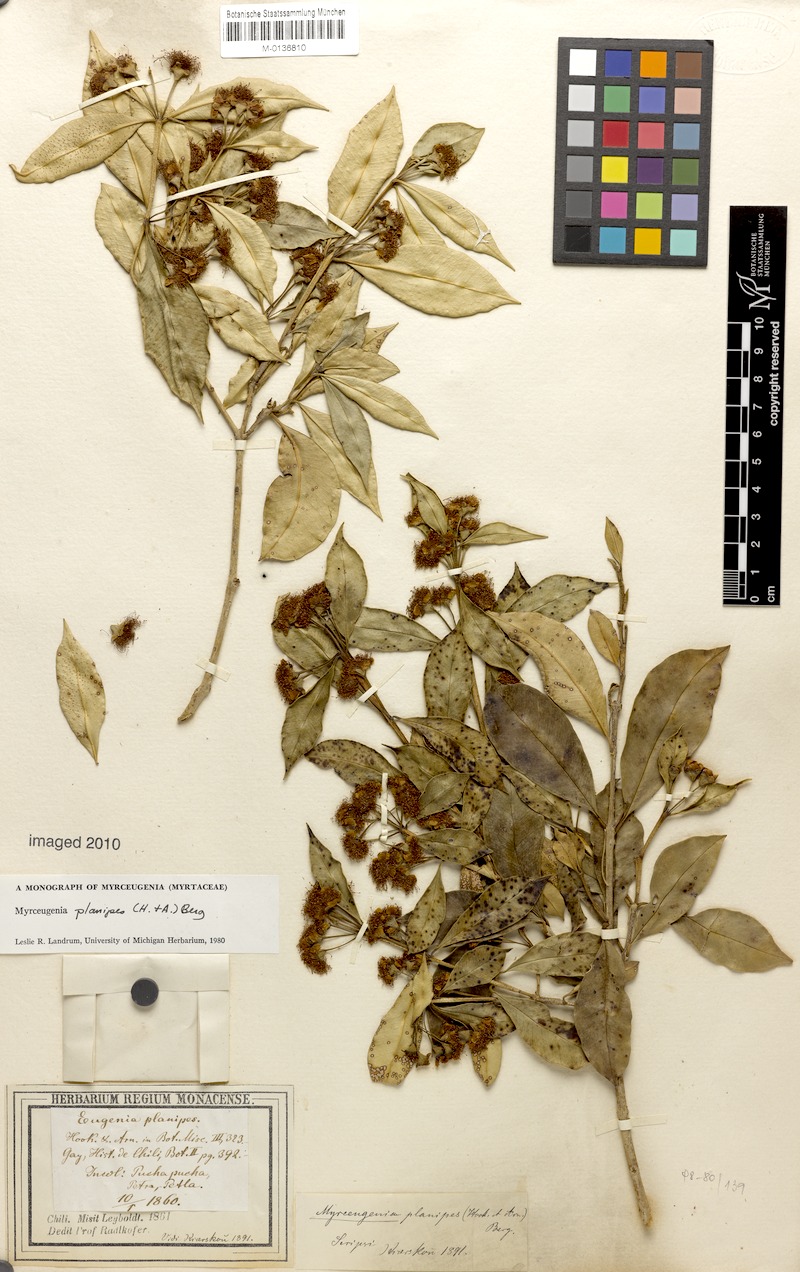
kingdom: Plantae
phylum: Tracheophyta
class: Magnoliopsida
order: Myrtales
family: Myrtaceae
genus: Myrceugenia
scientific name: Myrceugenia planipes
